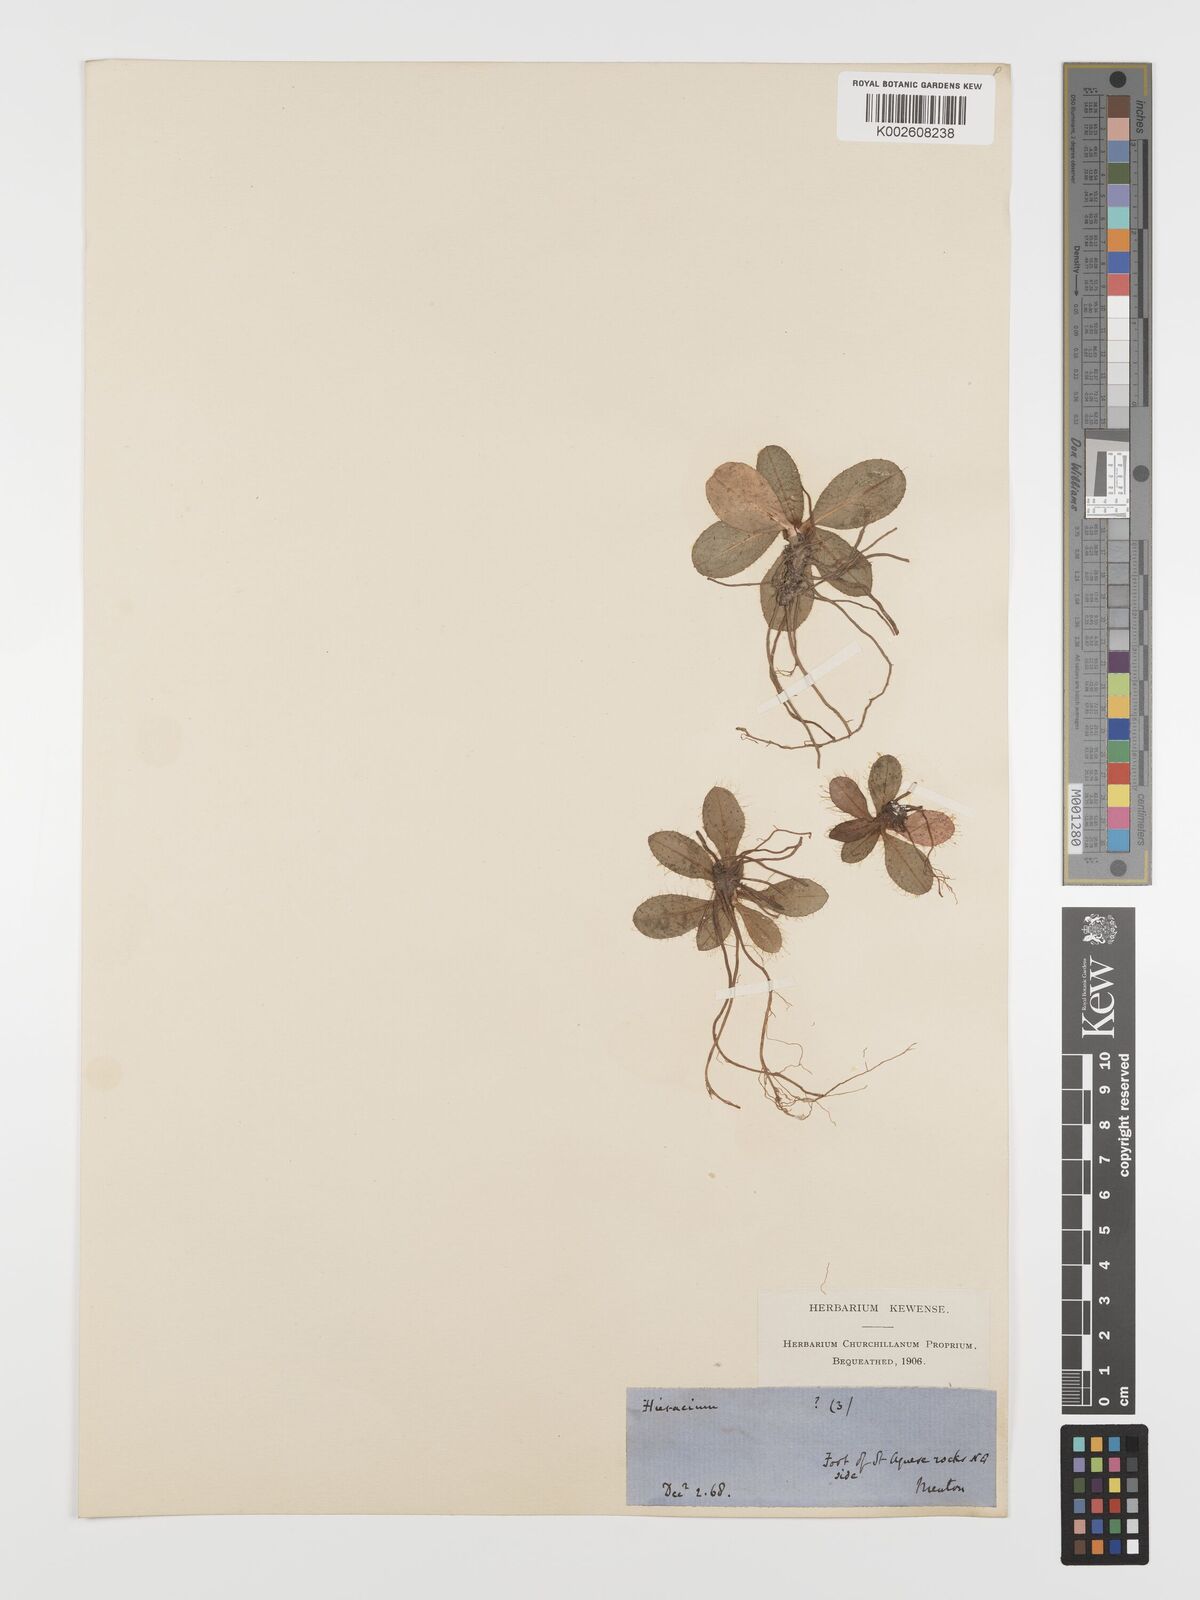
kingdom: Plantae
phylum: Tracheophyta
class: Magnoliopsida
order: Asterales
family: Asteraceae
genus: Hieracium
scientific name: Hieracium leiopogon
